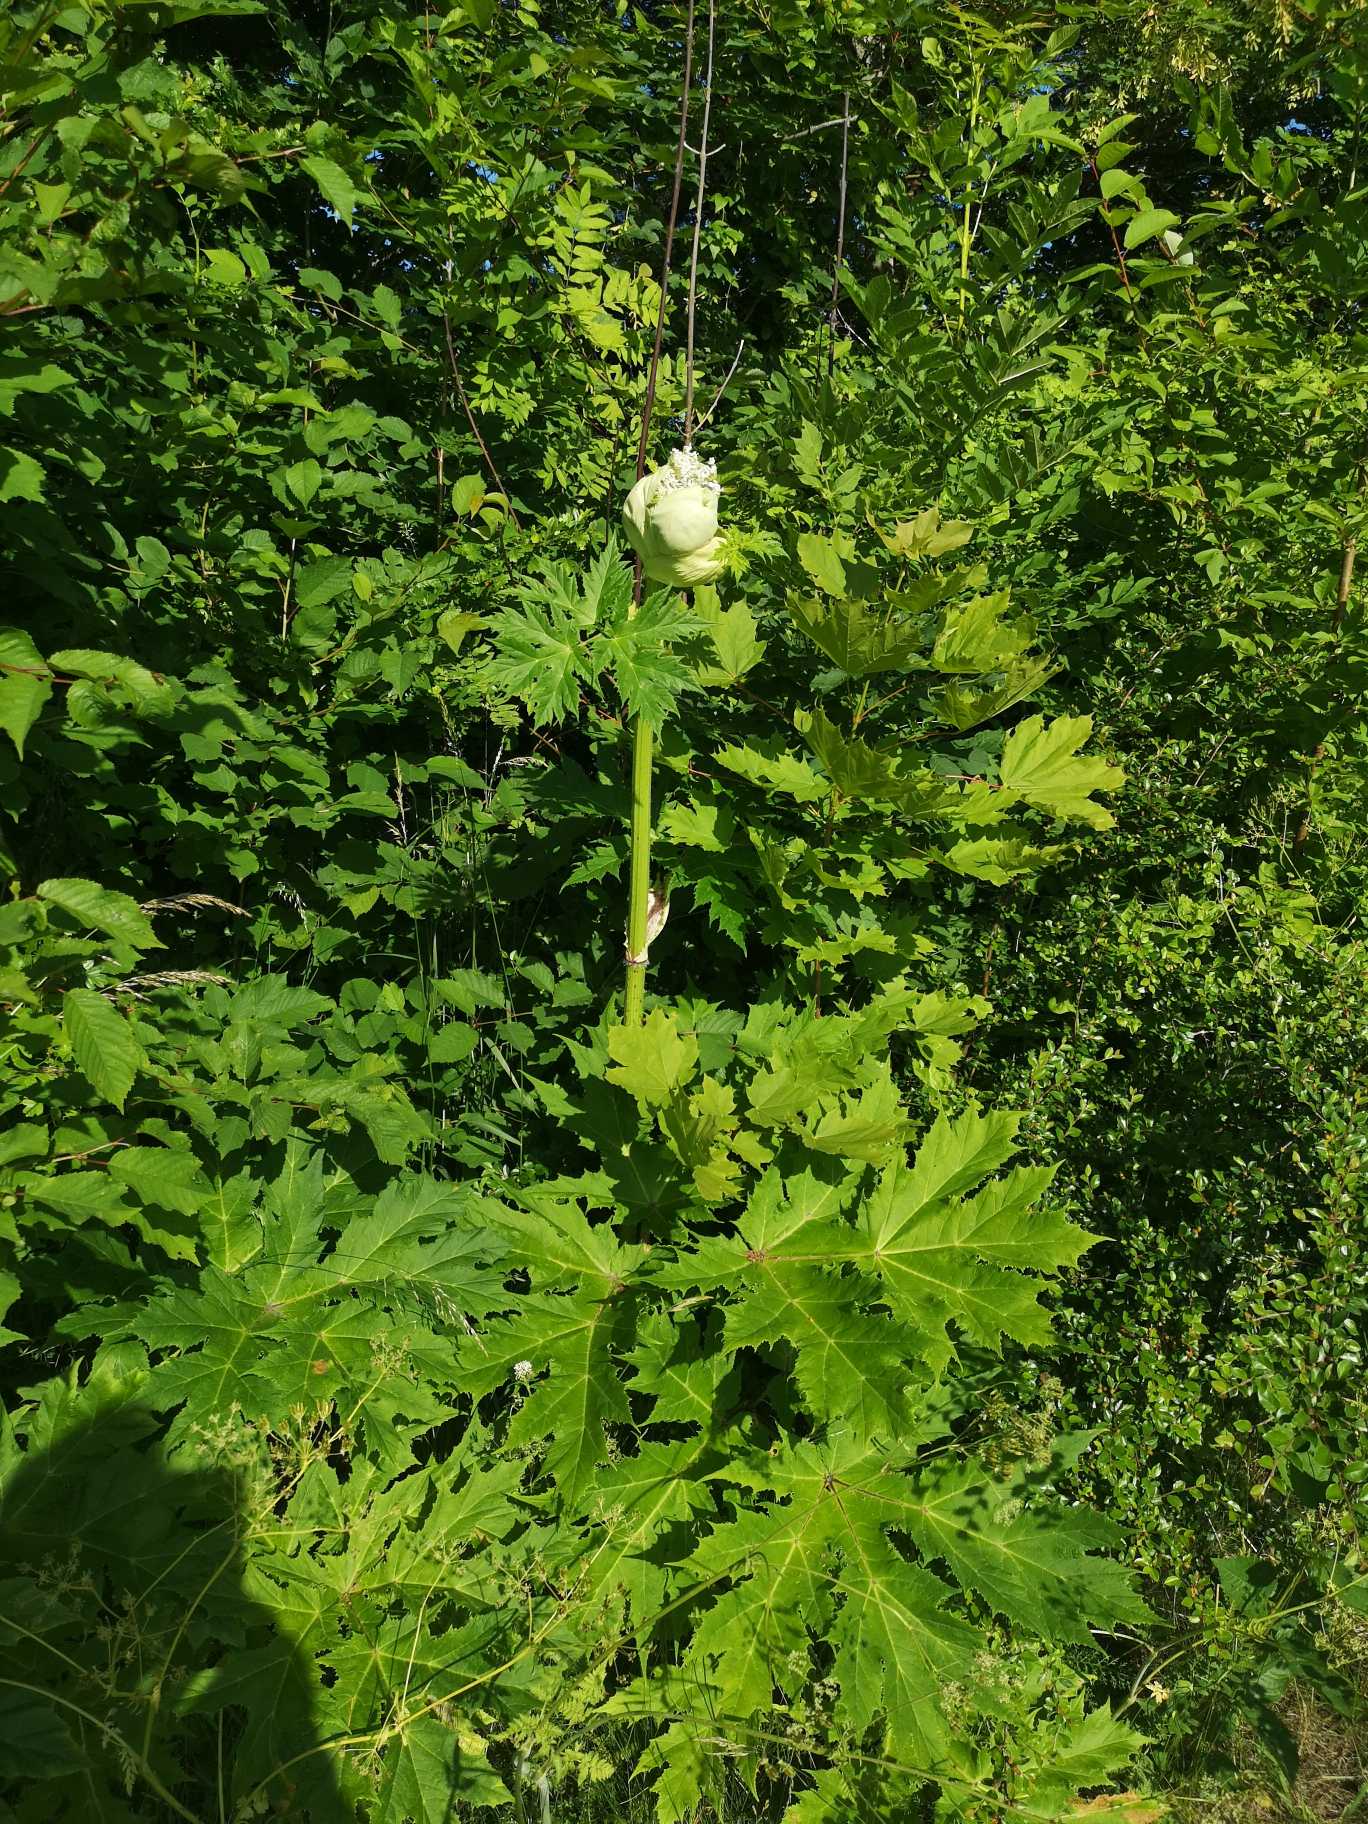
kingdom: Plantae
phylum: Tracheophyta
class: Magnoliopsida
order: Apiales
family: Apiaceae
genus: Heracleum
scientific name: Heracleum mantegazzianum
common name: Kæmpe-bjørneklo
